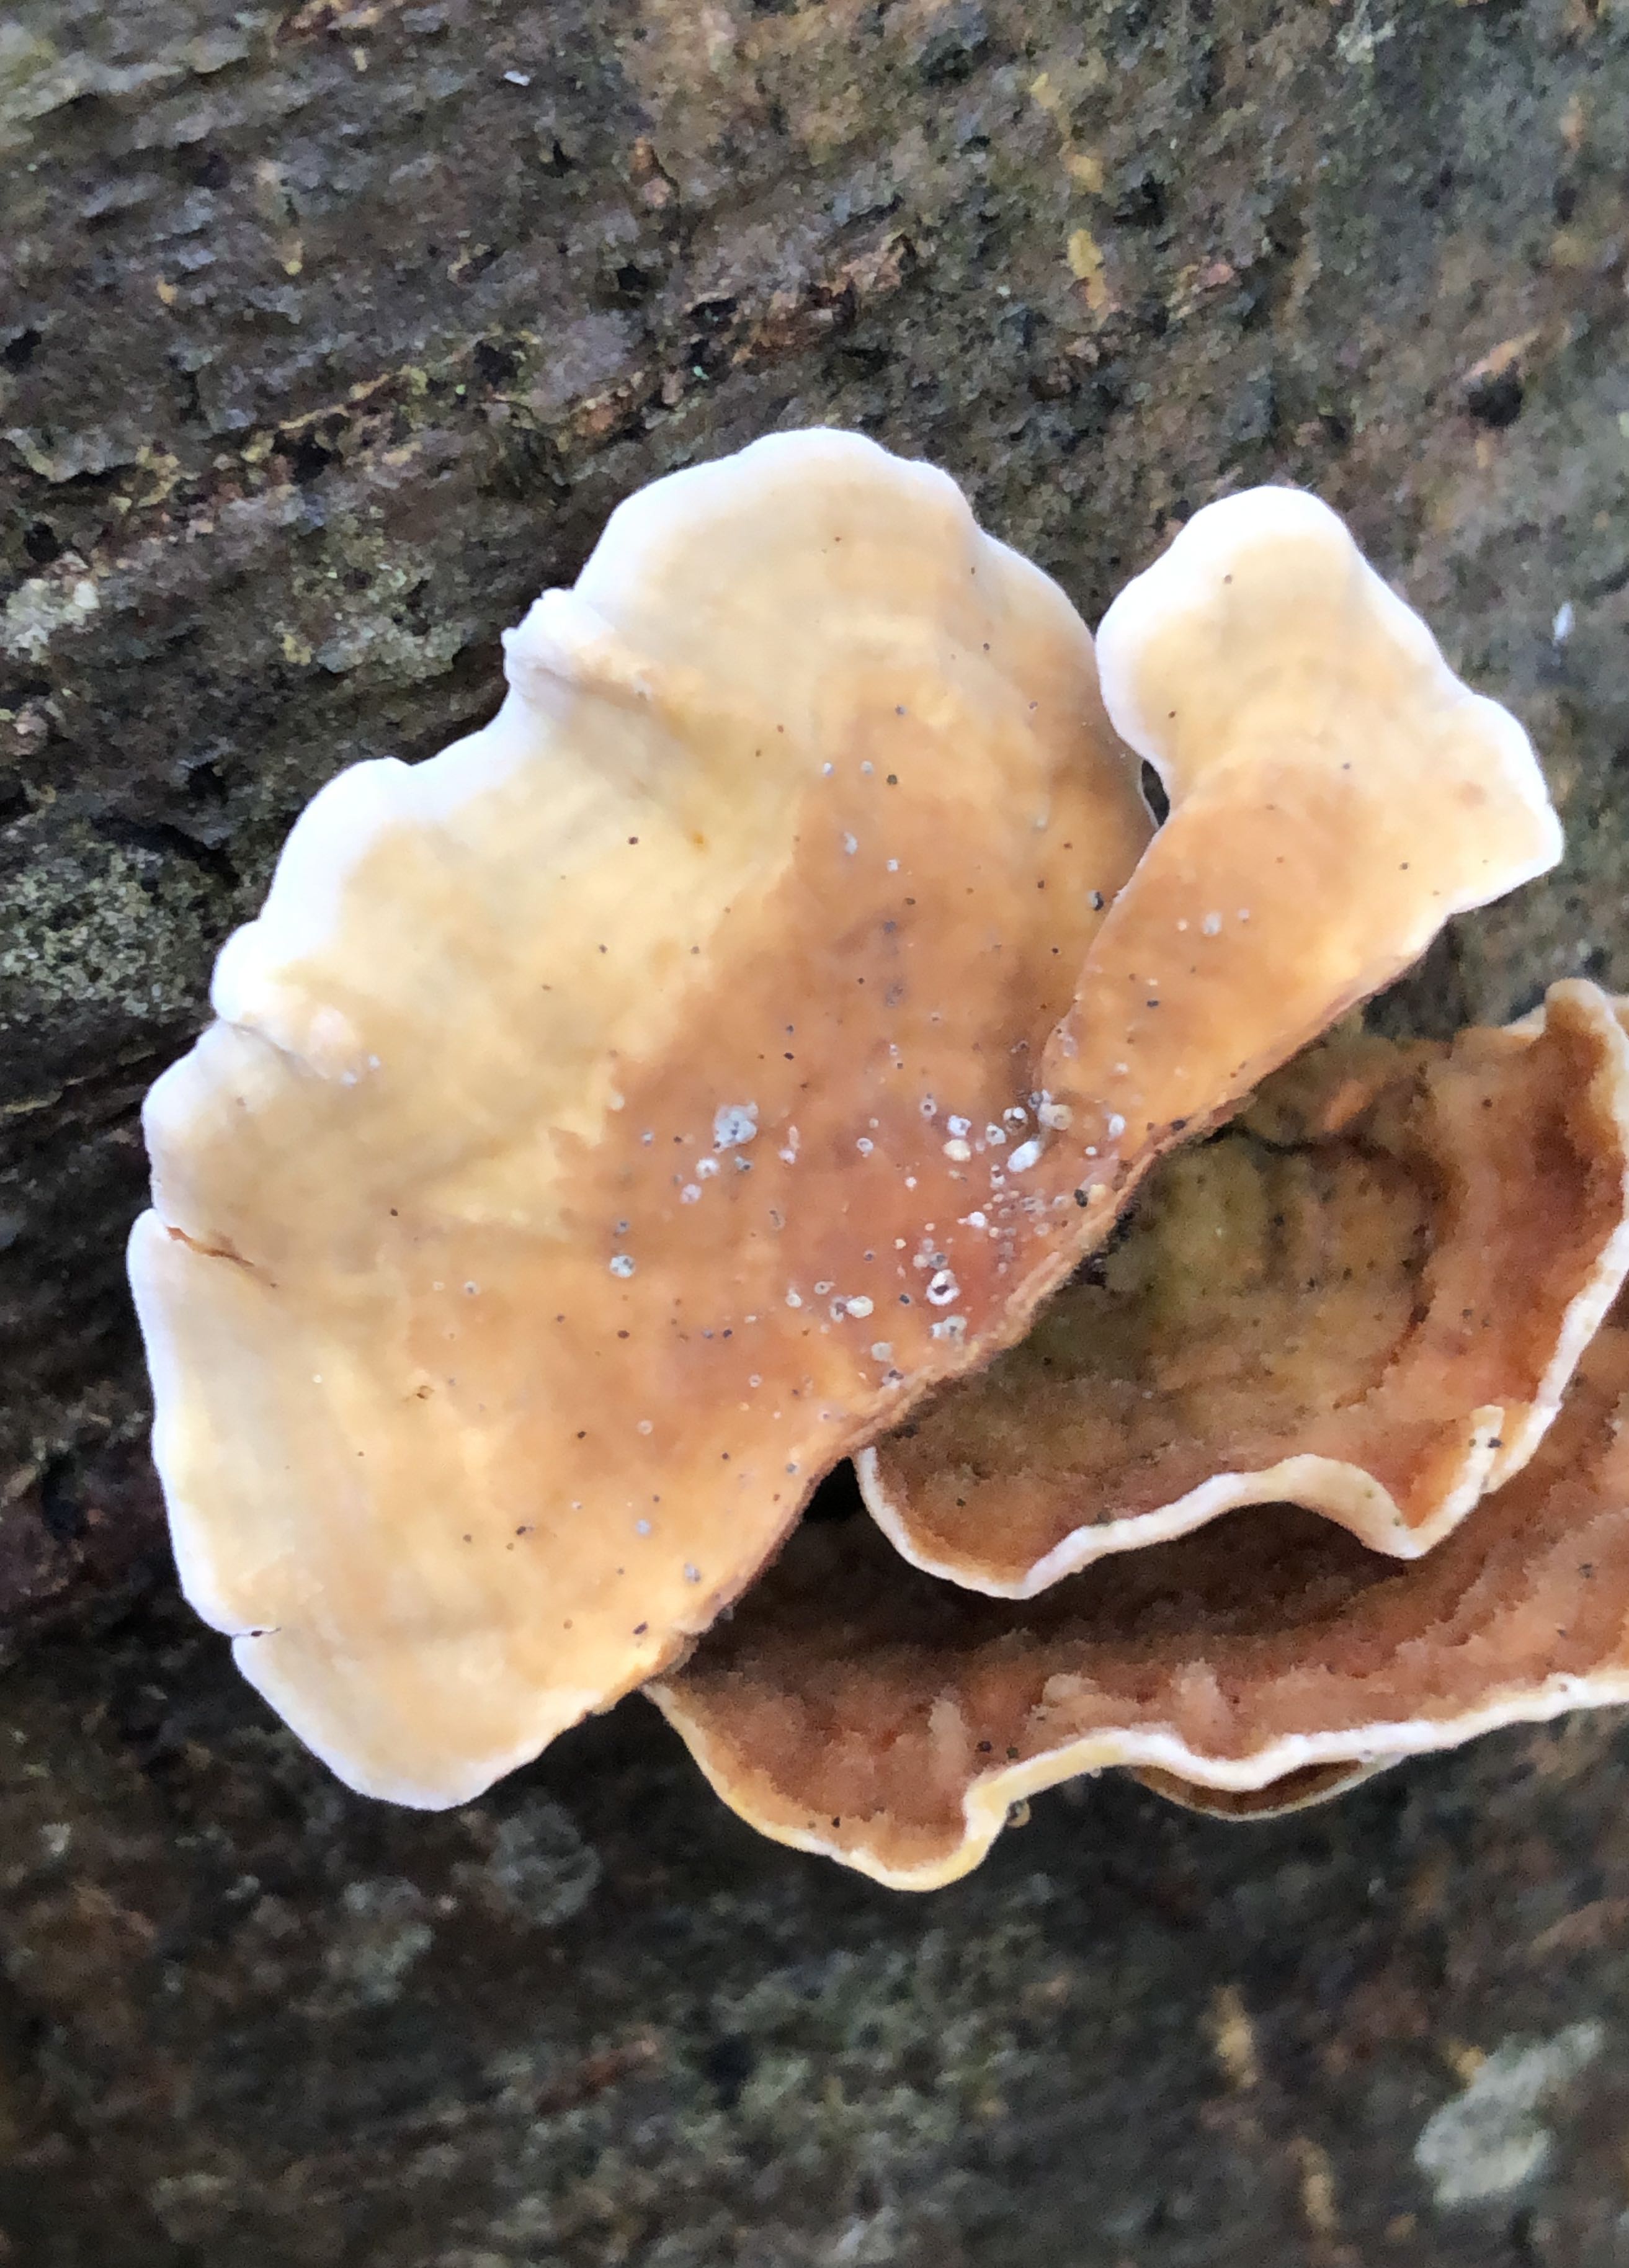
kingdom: Fungi
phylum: Basidiomycota
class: Agaricomycetes
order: Russulales
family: Stereaceae
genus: Stereum
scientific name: Stereum subtomentosum
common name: smuk lædersvamp
